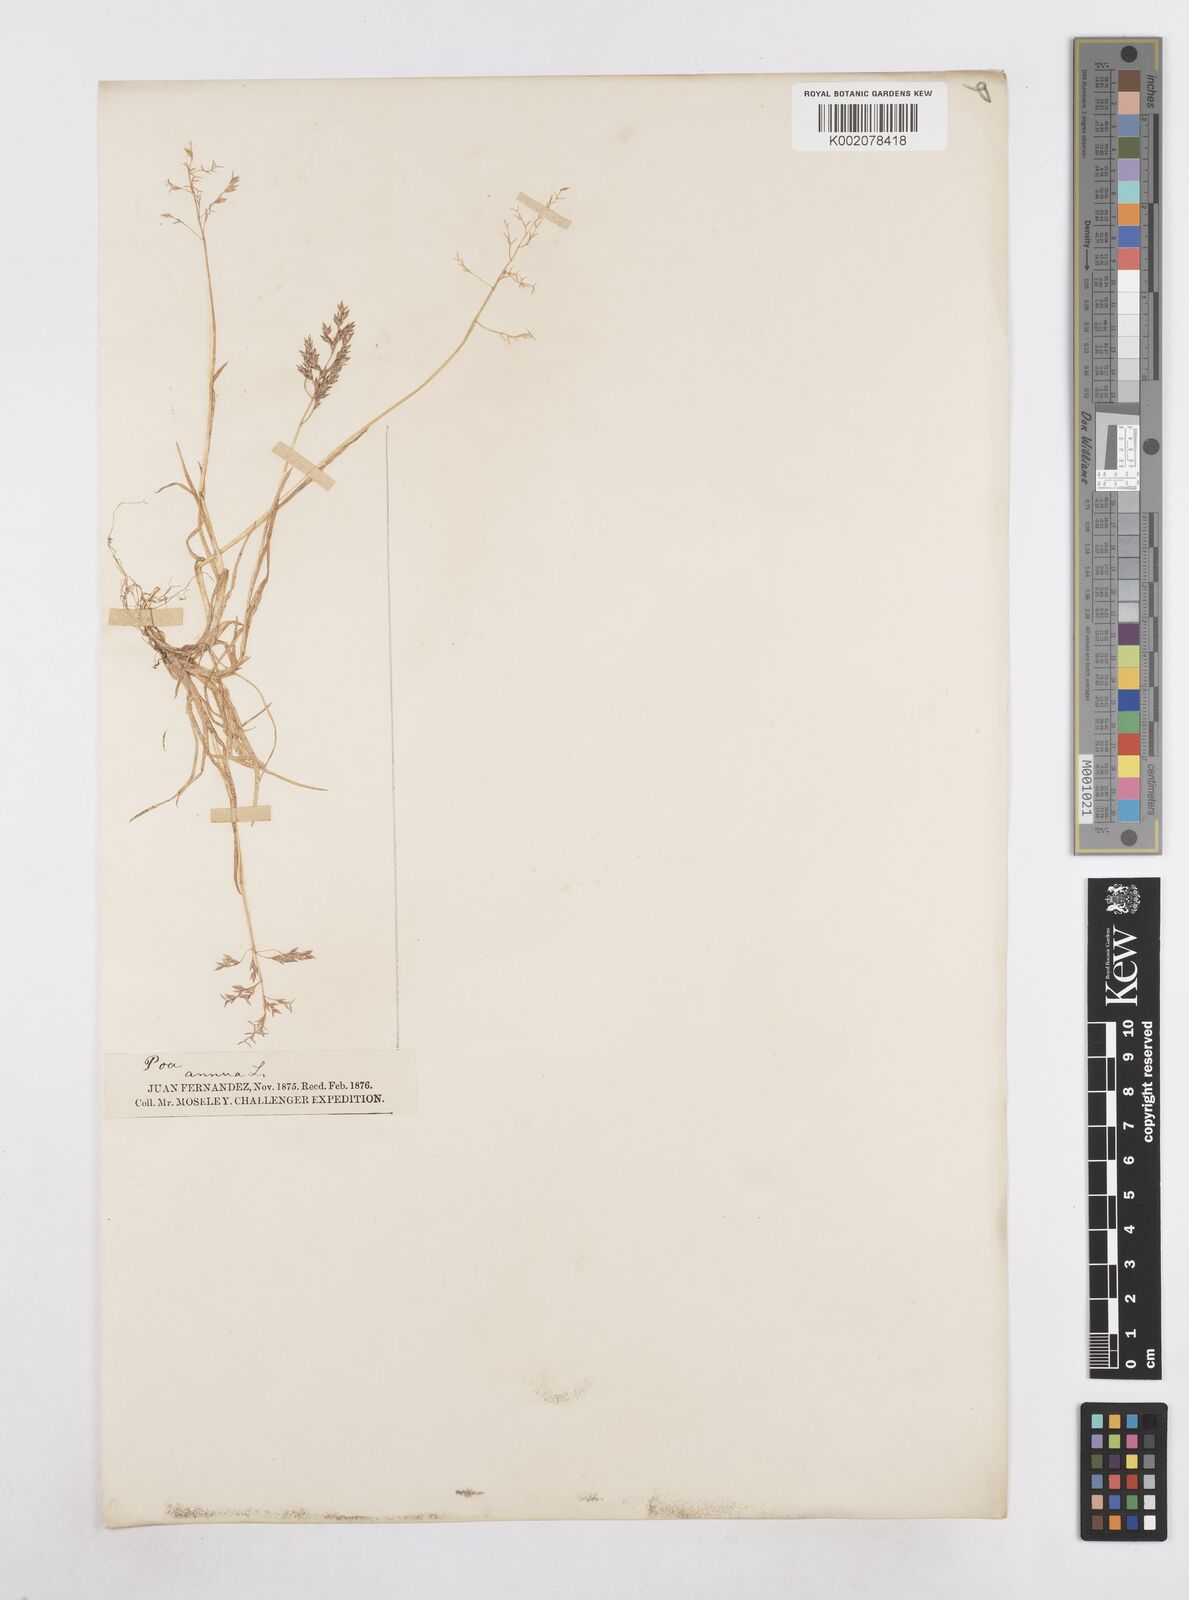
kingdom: Plantae
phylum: Tracheophyta
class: Liliopsida
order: Poales
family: Poaceae
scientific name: Poaceae
